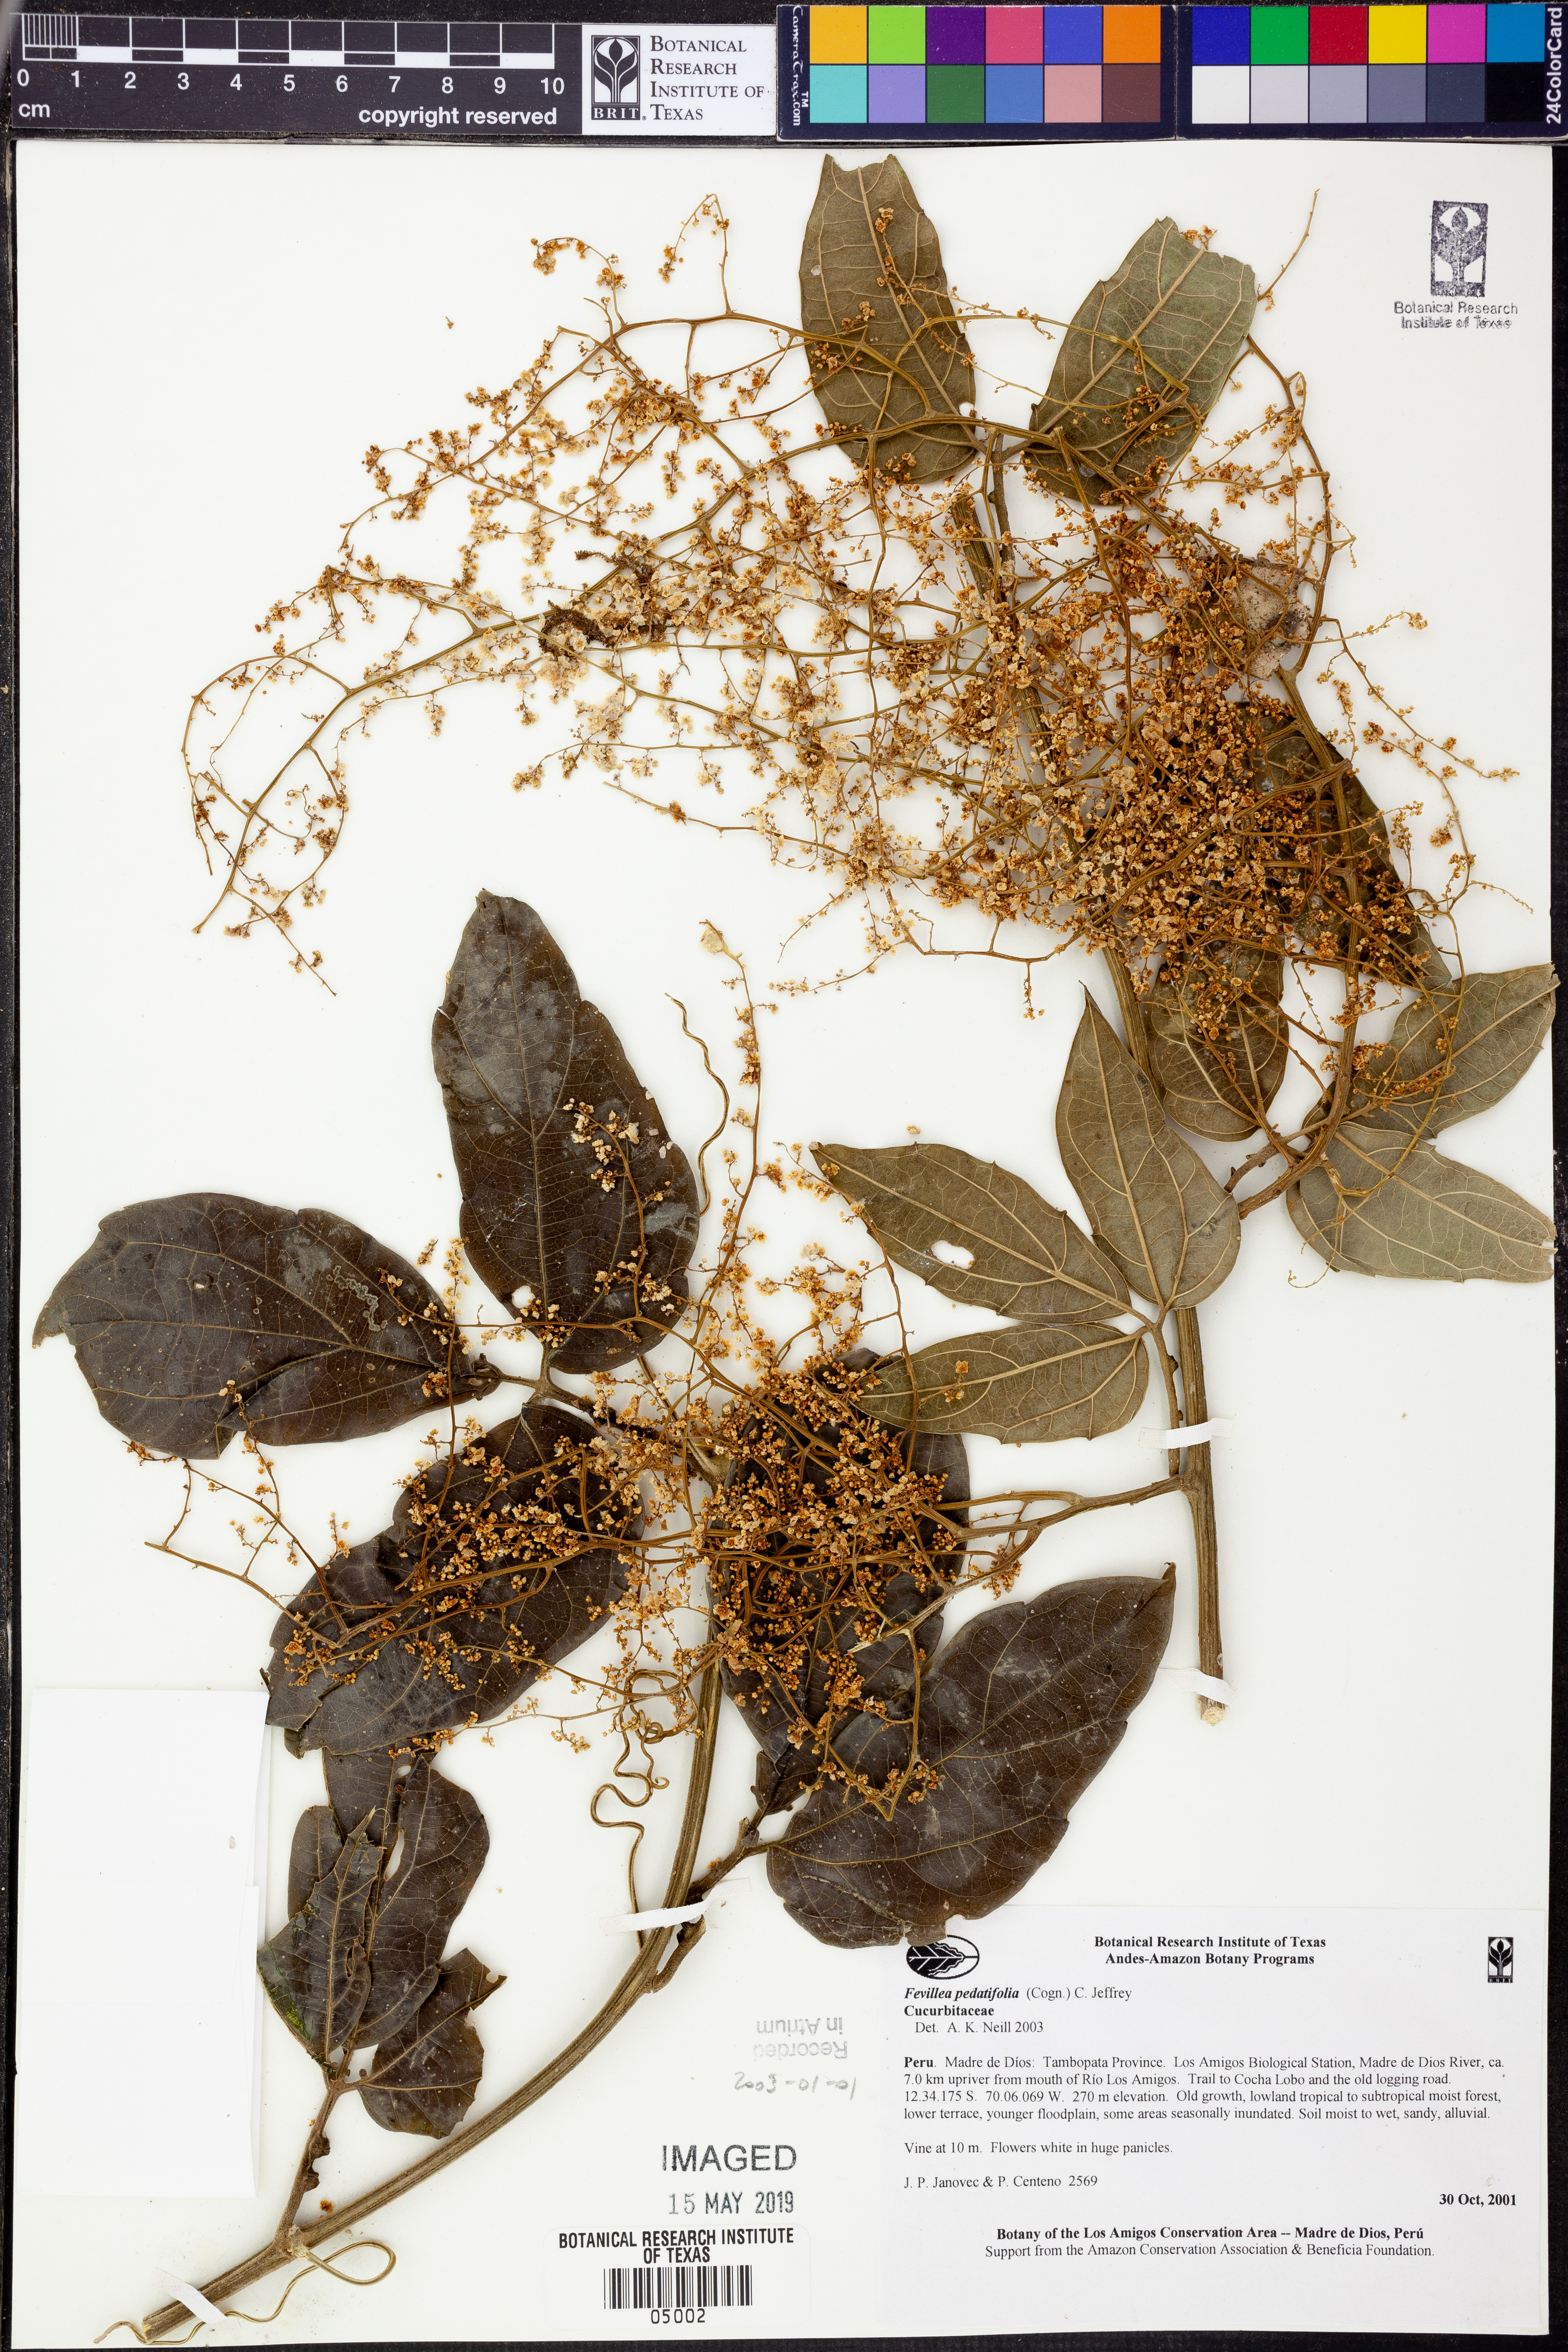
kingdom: Plantae
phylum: Tracheophyta
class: Magnoliopsida
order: Cucurbitales
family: Cucurbitaceae
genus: Fevillea
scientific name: Fevillea
